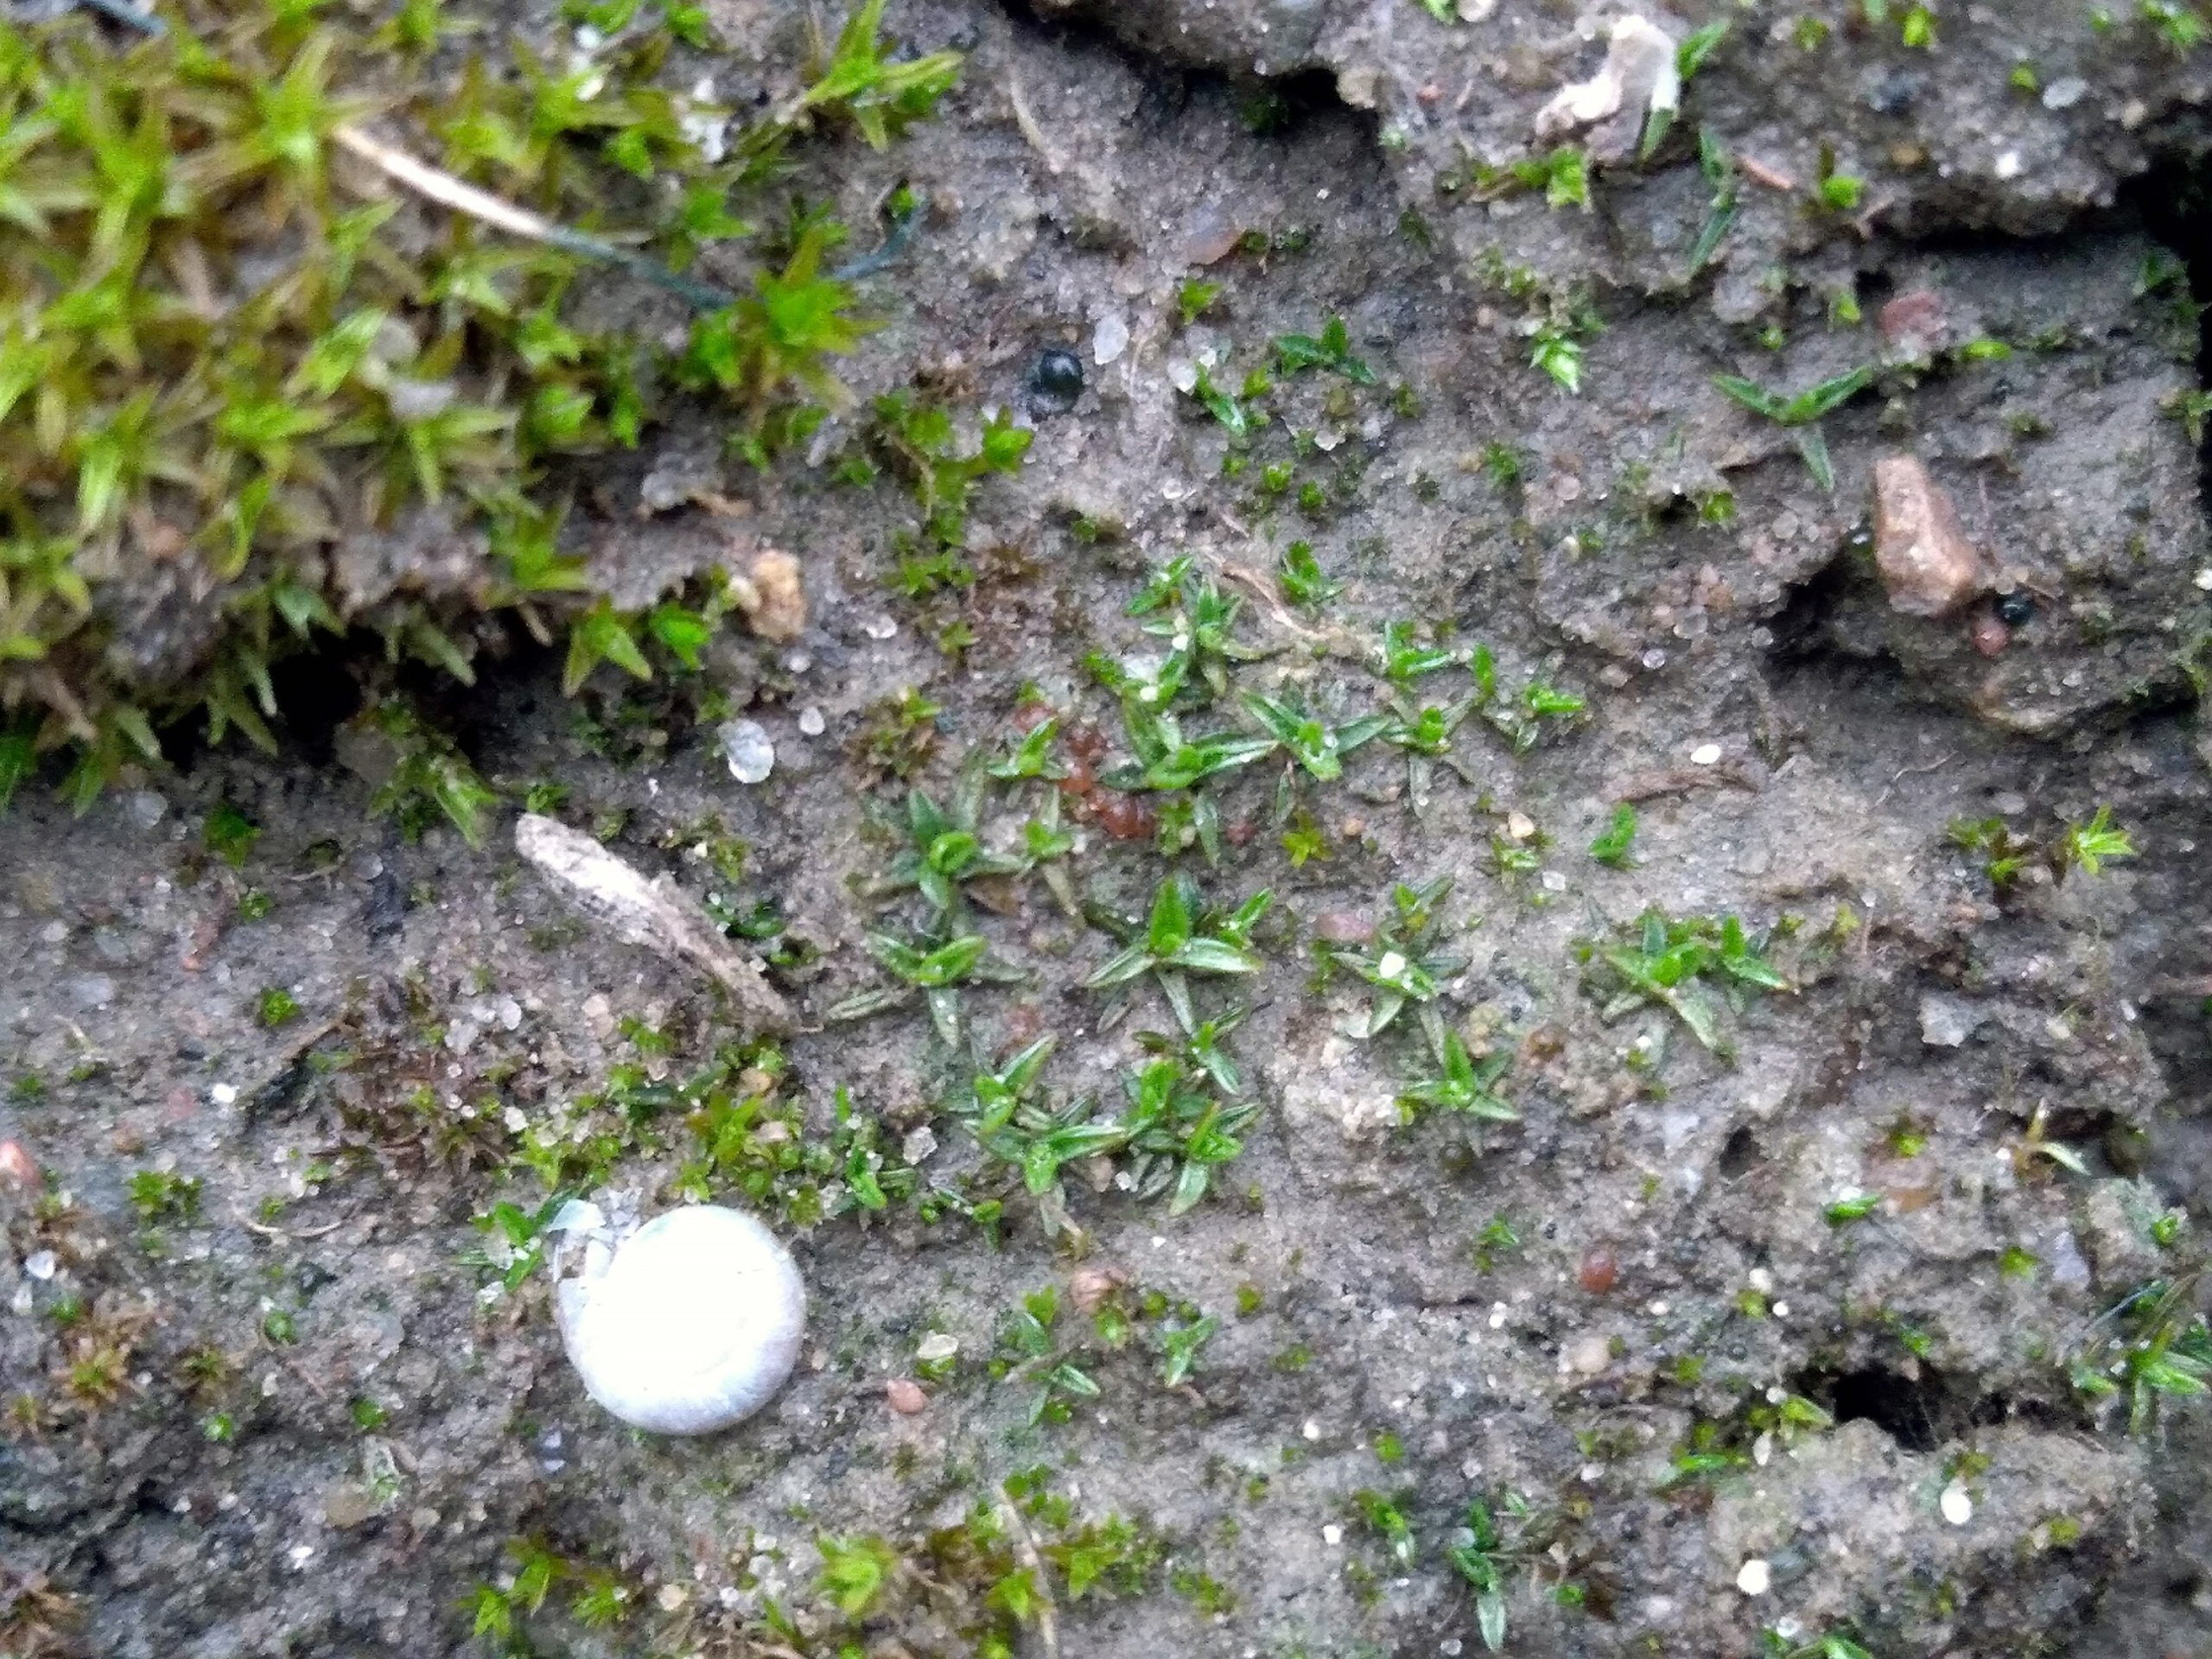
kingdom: Plantae
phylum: Bryophyta
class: Bryopsida
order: Pottiales
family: Pottiaceae
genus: Aloina
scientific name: Aloina ambigua
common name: Krog-tøffelmos
